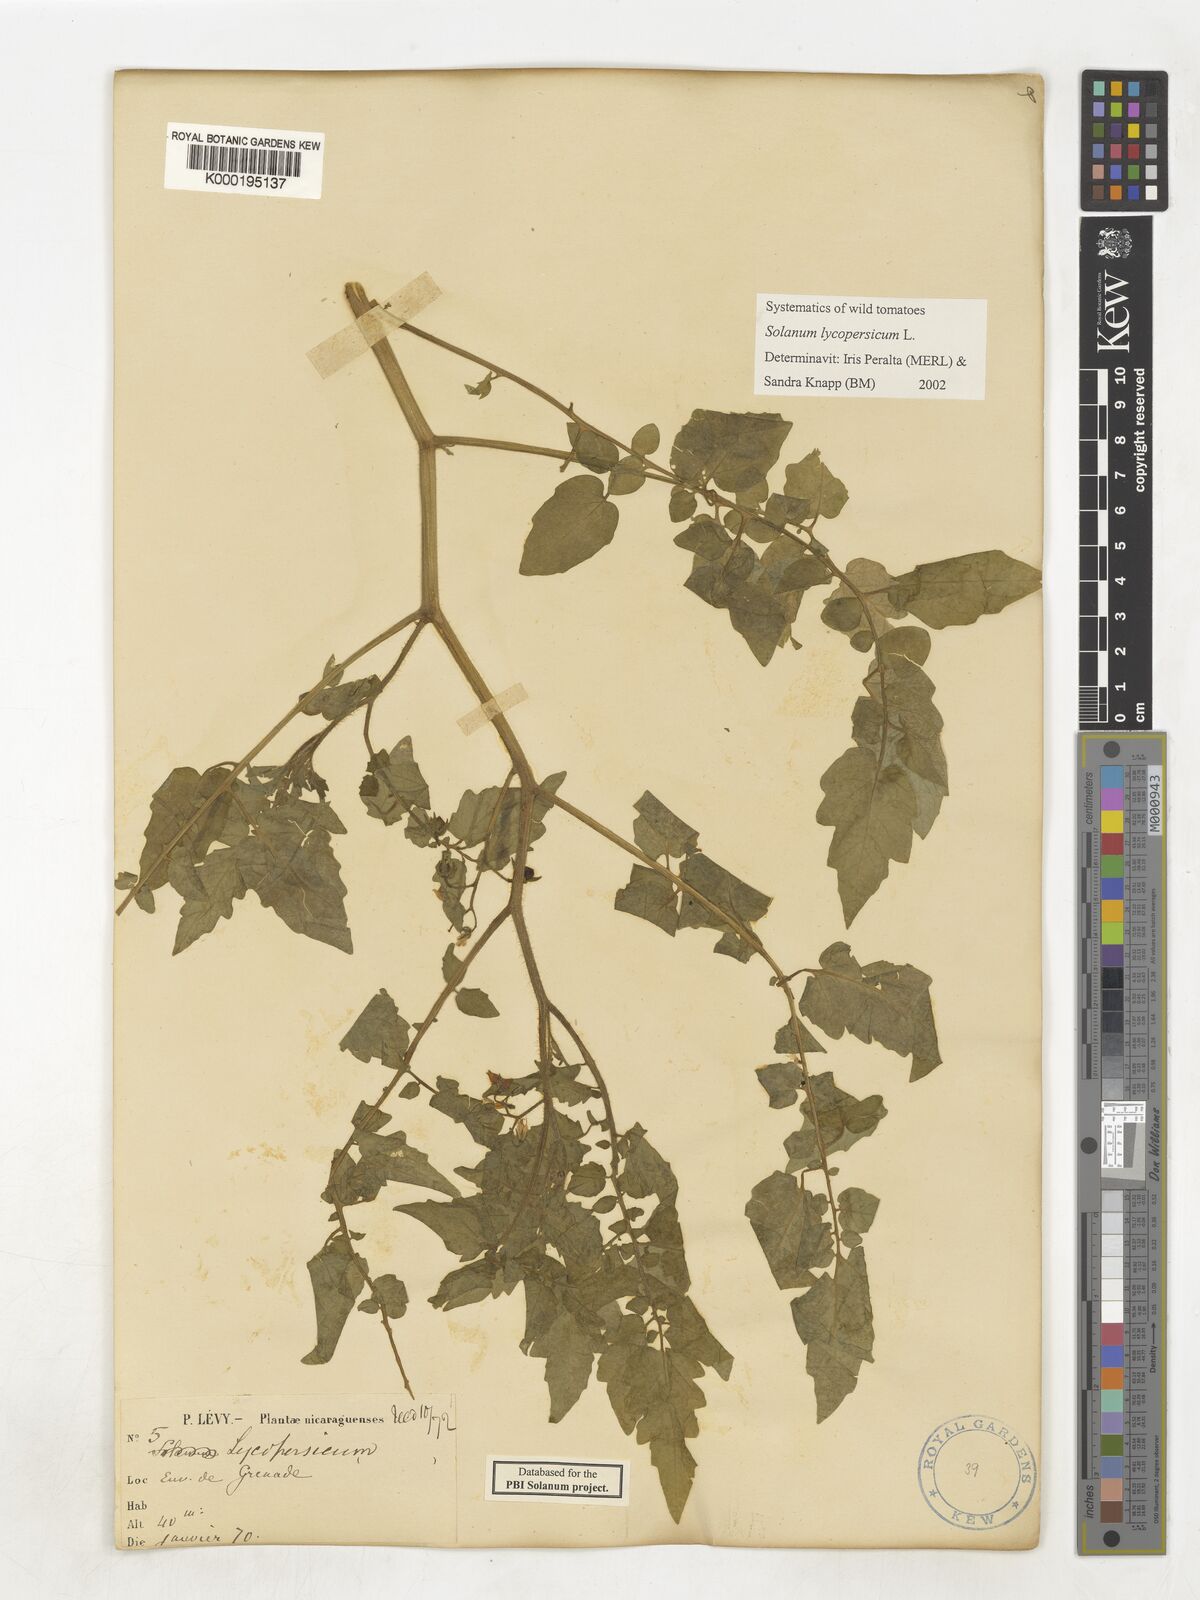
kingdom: Plantae
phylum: Tracheophyta
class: Magnoliopsida
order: Solanales
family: Solanaceae
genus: Solanum
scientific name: Solanum lycopersicum
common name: Garden tomato
